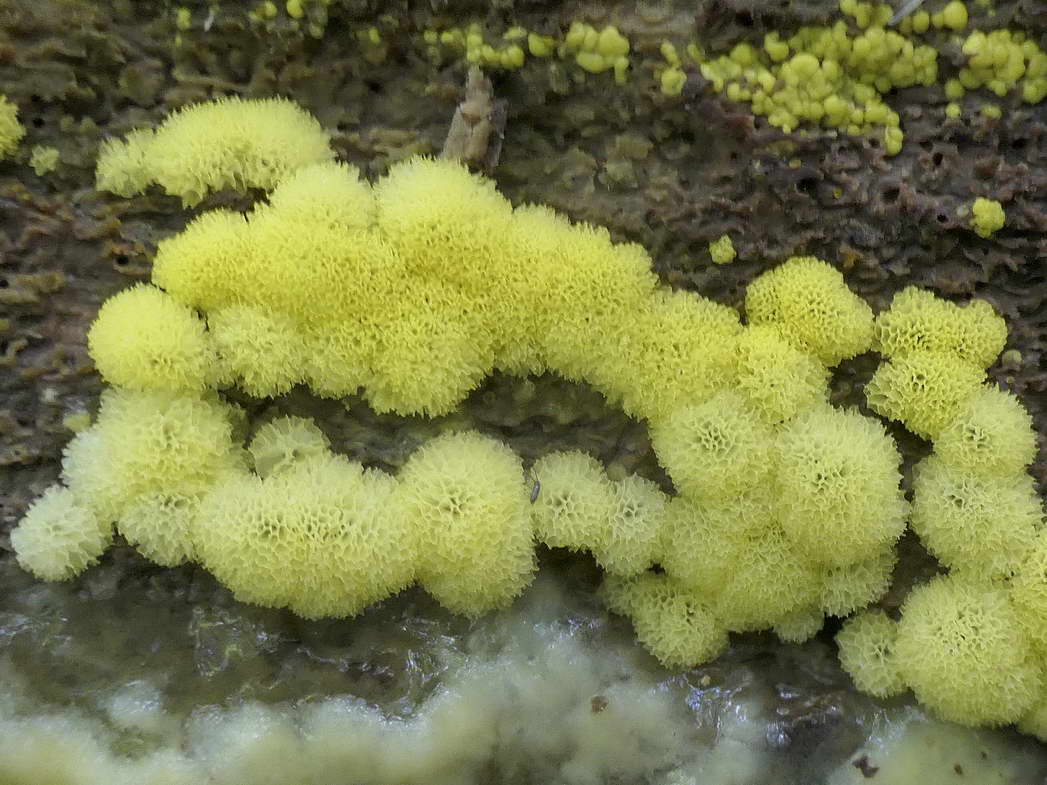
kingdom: Protozoa
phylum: Mycetozoa
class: Protosteliomycetes
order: Ceratiomyxales
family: Ceratiomyxaceae
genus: Ceratiomyxa
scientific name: Ceratiomyxa fruticulosa
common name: Honeycomb coral slime mold
